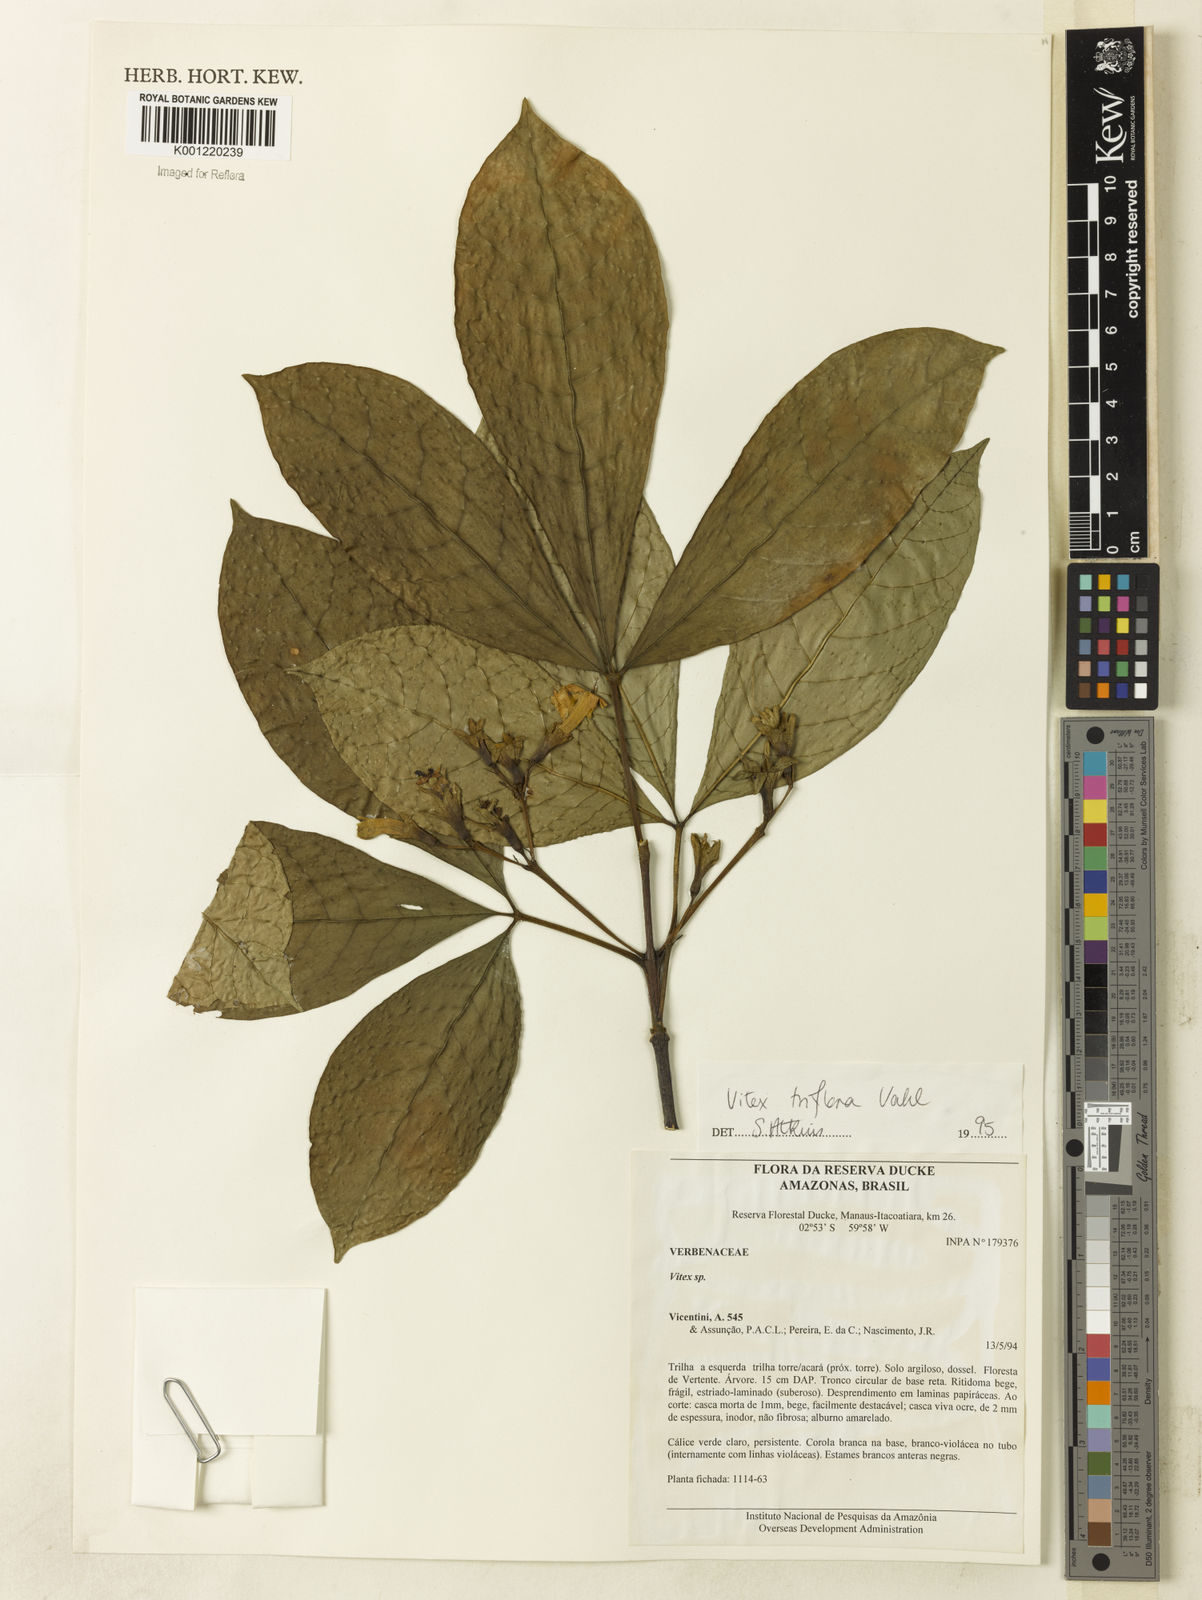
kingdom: Plantae
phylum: Tracheophyta
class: Magnoliopsida
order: Lamiales
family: Lamiaceae
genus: Vitex
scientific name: Vitex triflora
